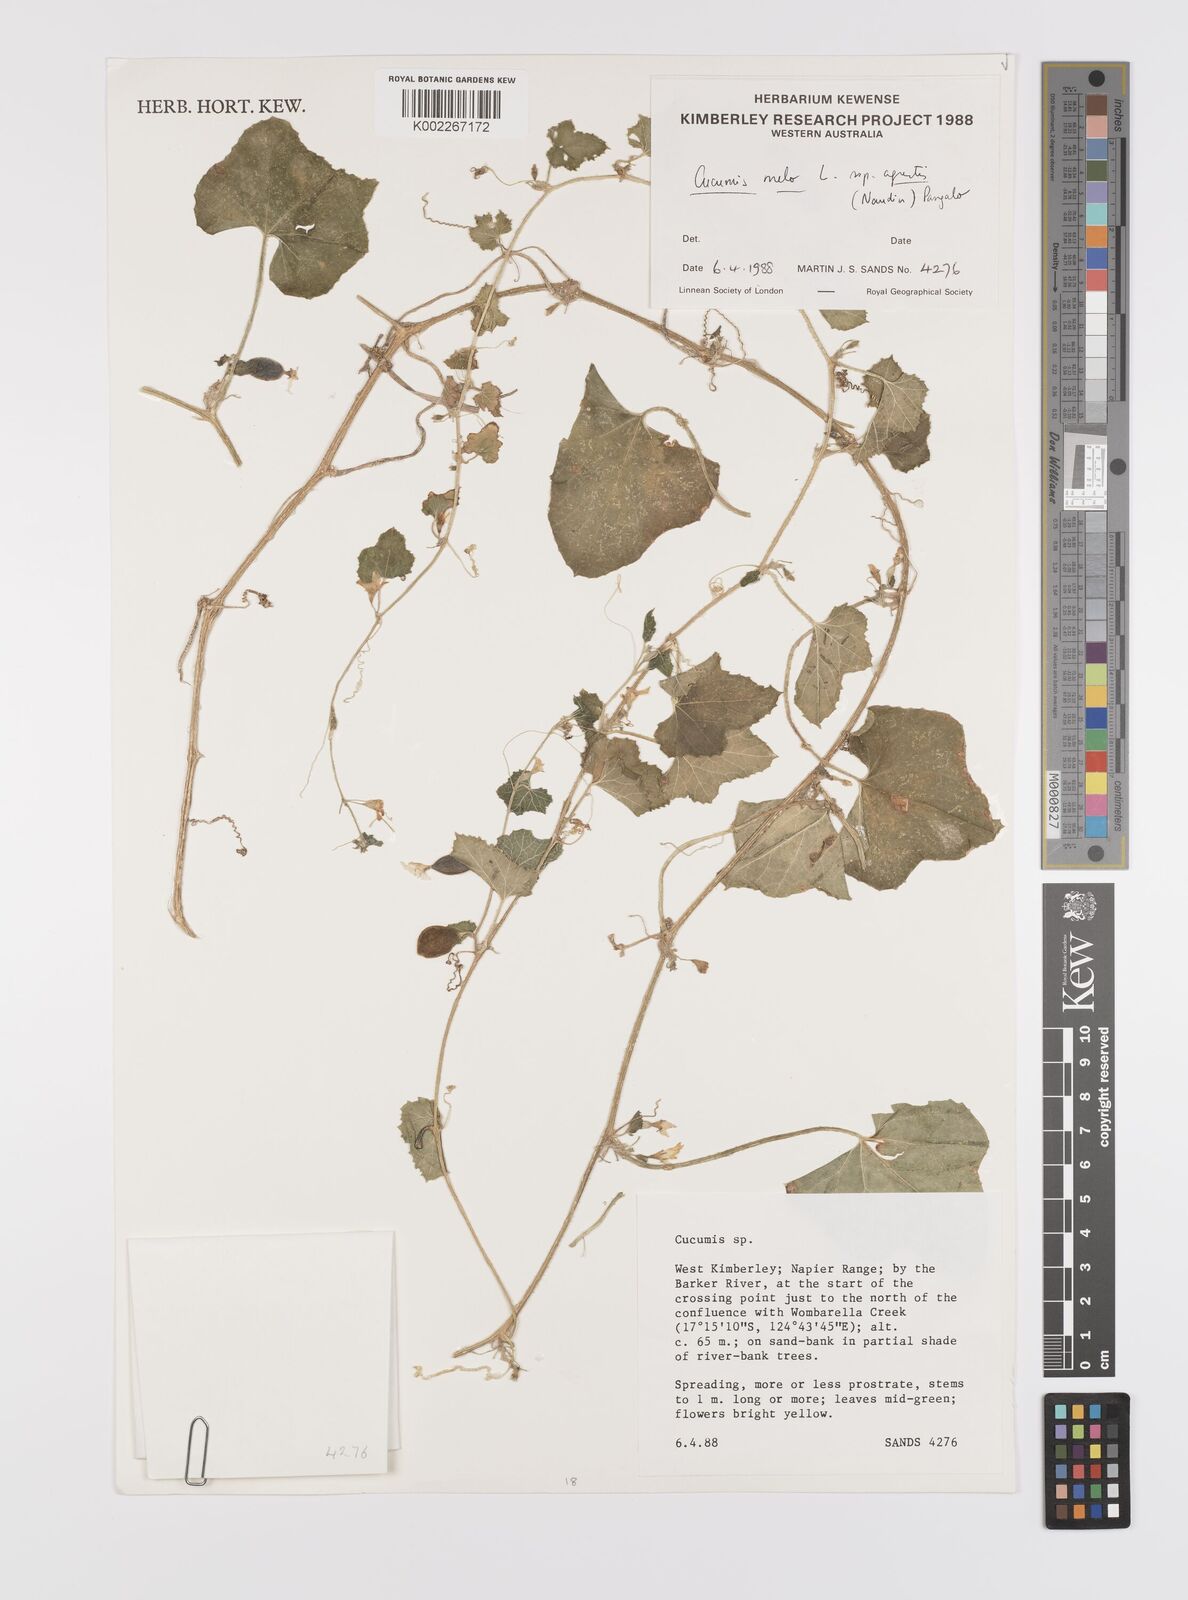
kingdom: Plantae
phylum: Tracheophyta
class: Magnoliopsida
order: Cucurbitales
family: Cucurbitaceae
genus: Cucumis
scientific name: Cucumis
